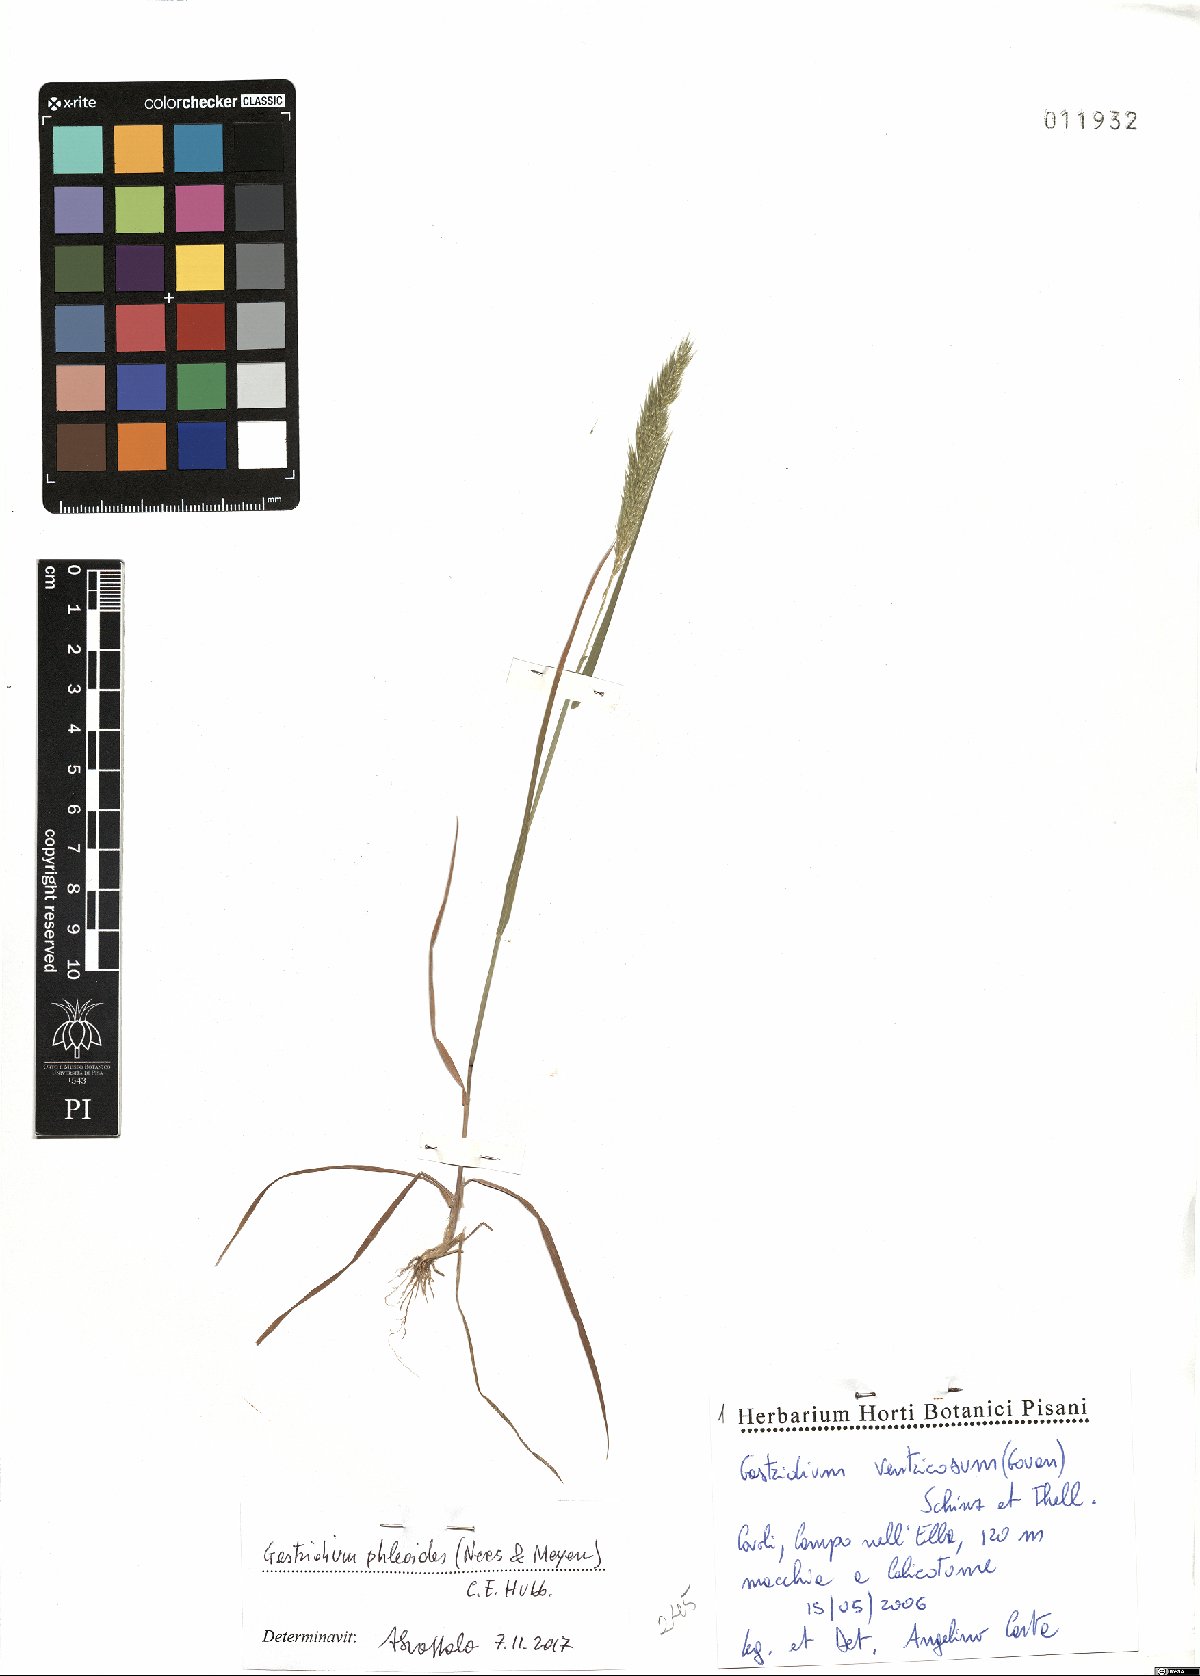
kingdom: Plantae
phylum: Tracheophyta
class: Liliopsida
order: Poales
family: Poaceae
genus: Gastridium
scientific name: Gastridium phleoides
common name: Nit grass
